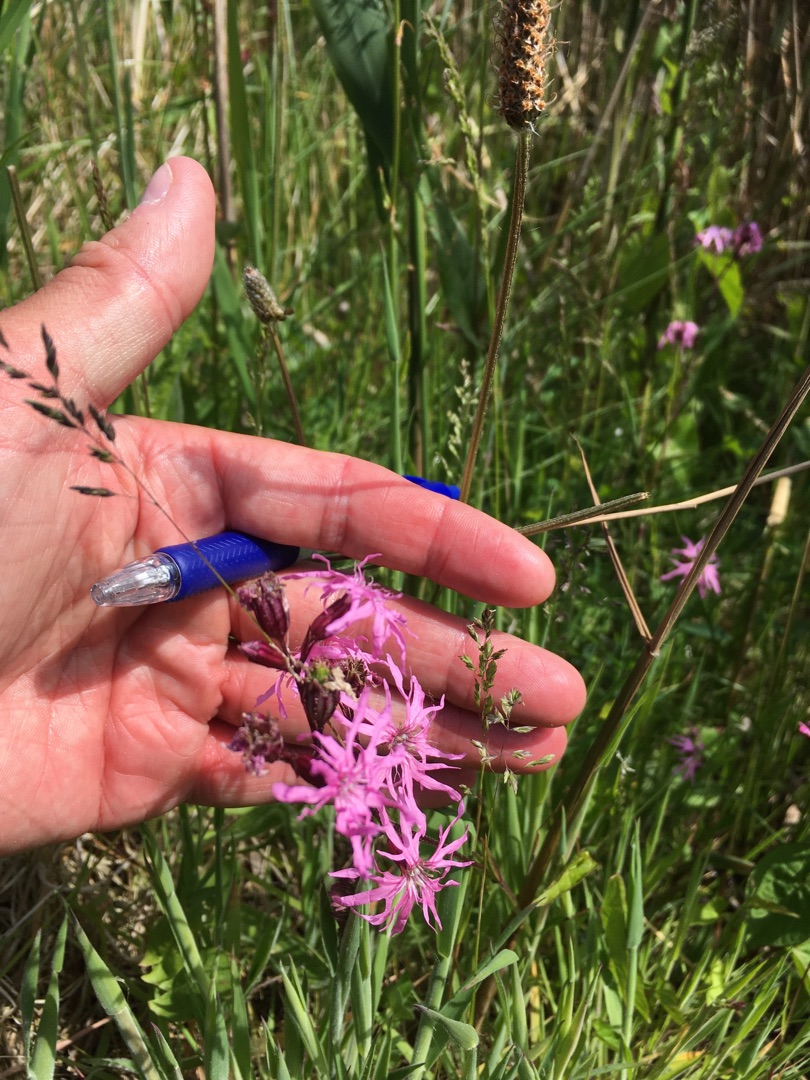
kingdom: Plantae
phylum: Tracheophyta
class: Magnoliopsida
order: Caryophyllales
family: Caryophyllaceae
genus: Silene
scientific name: Silene flos-cuculi
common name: Trævlekrone
